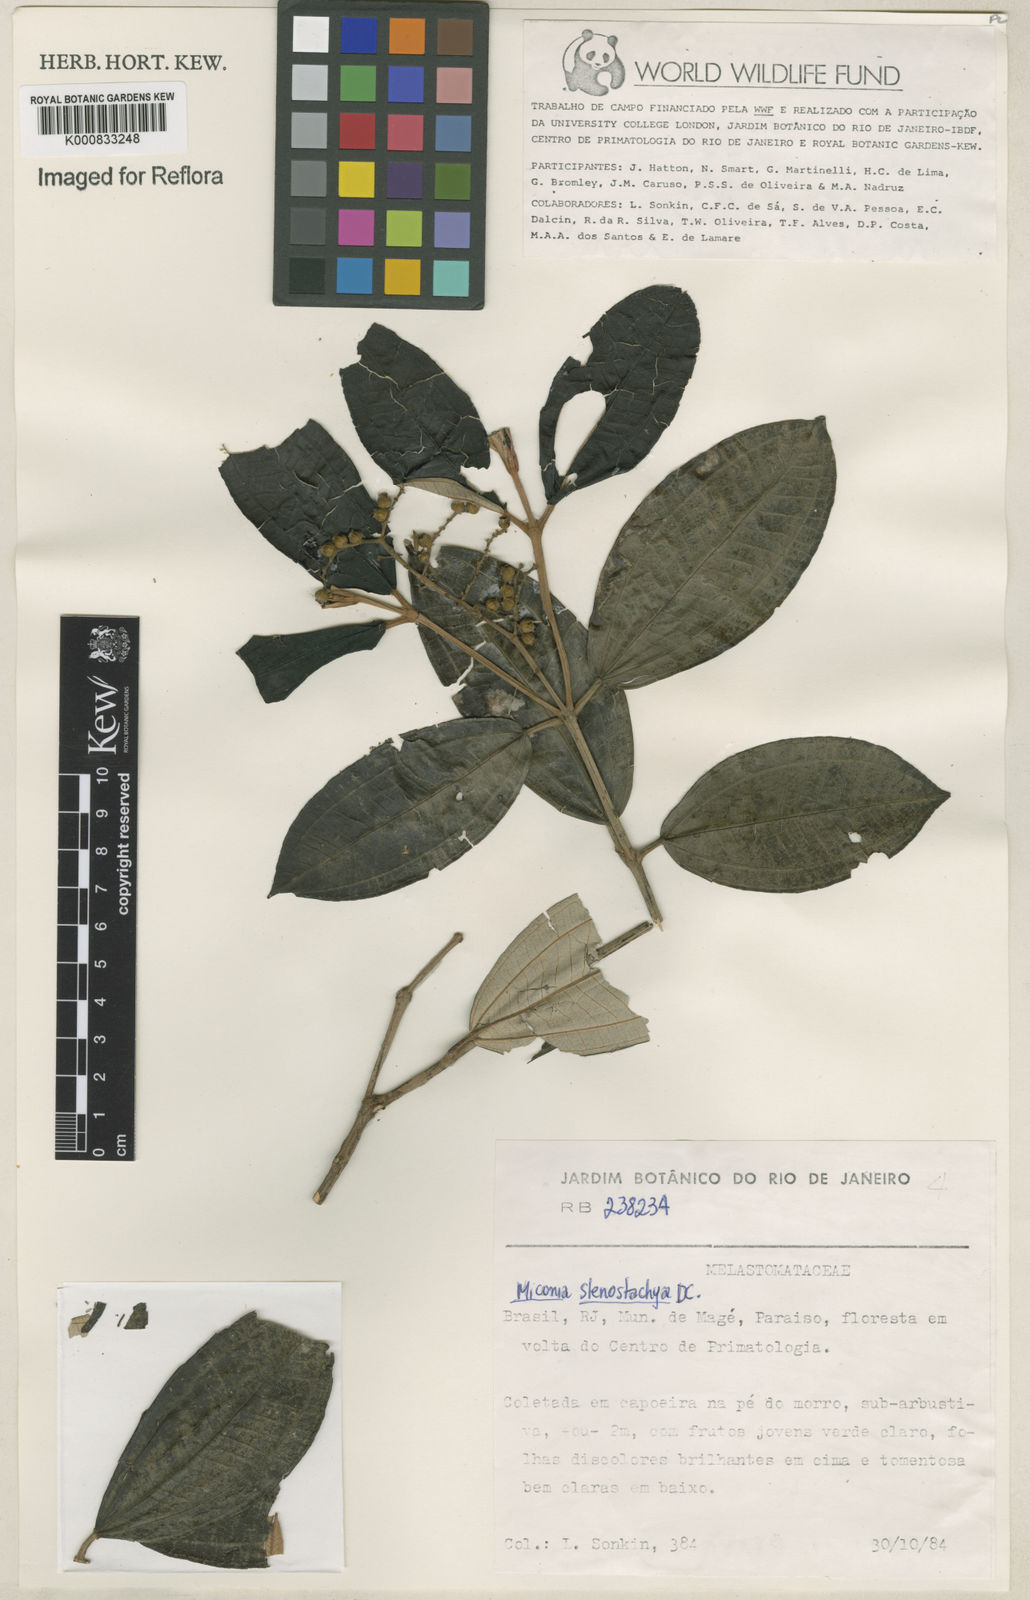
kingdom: Plantae
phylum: Tracheophyta
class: Magnoliopsida
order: Myrtales
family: Melastomataceae
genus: Miconia
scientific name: Miconia stenostachya
